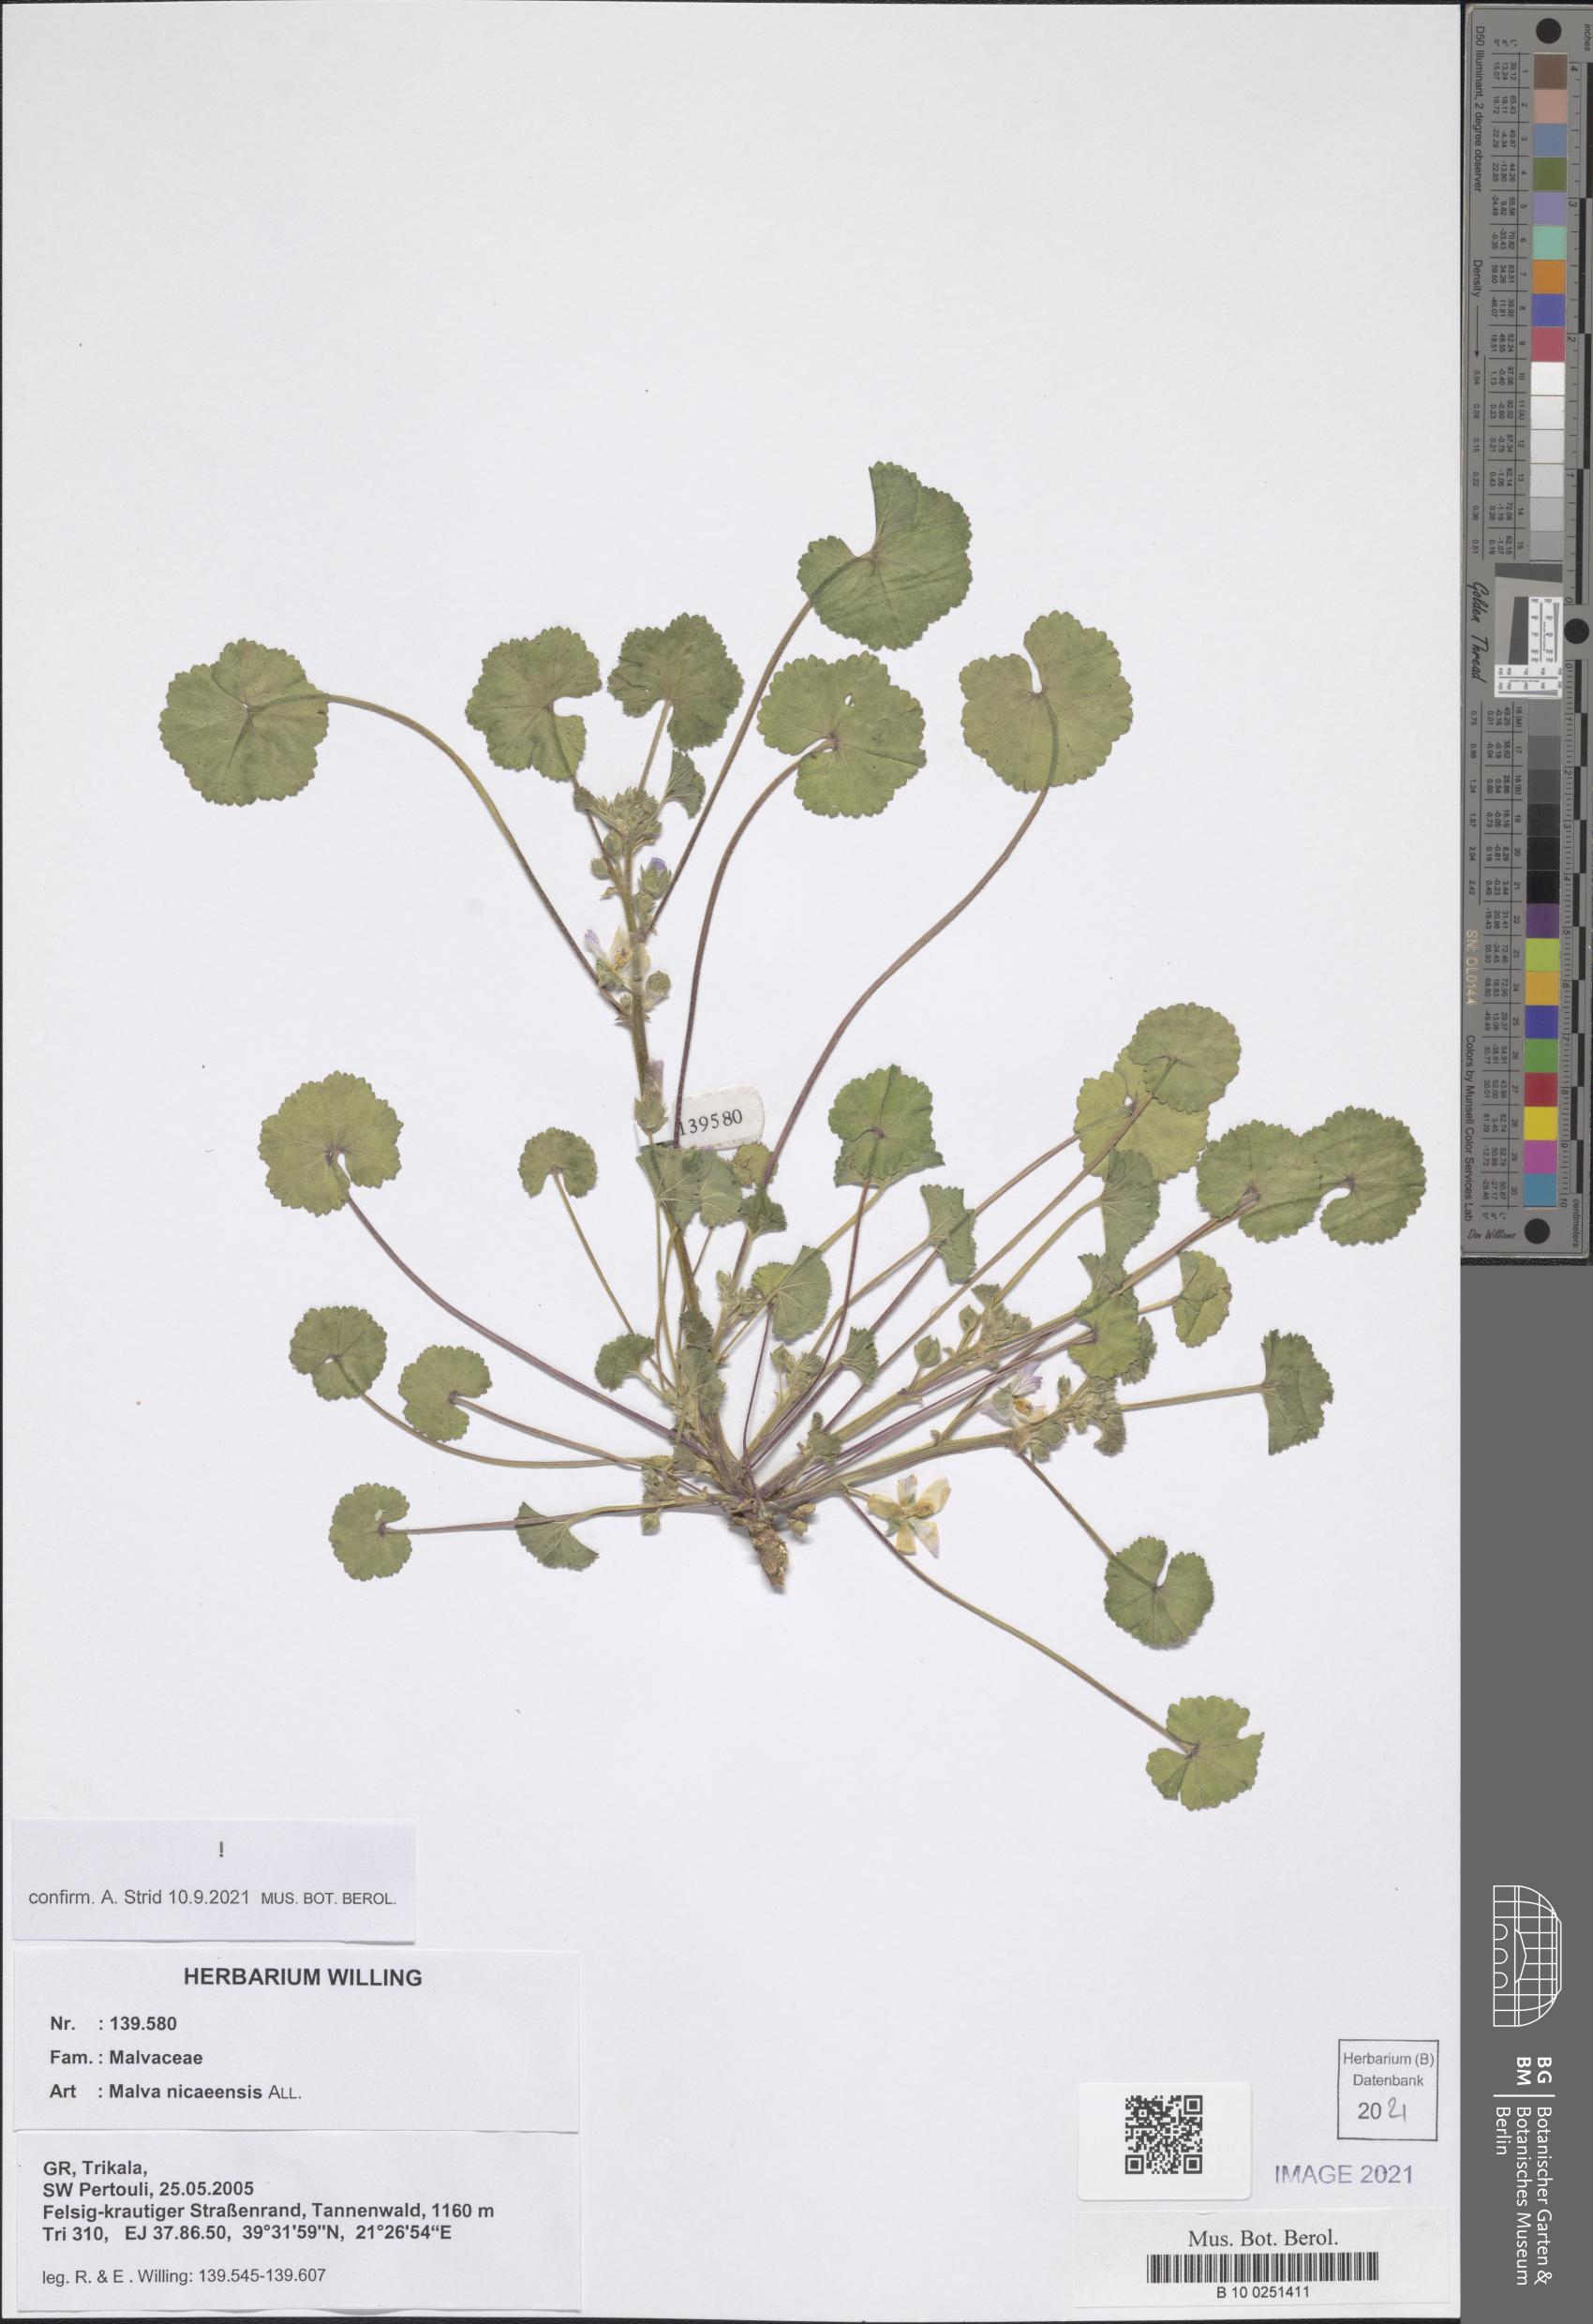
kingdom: Plantae
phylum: Tracheophyta
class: Magnoliopsida
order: Malvales
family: Malvaceae
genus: Malva
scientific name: Malva nicaeensis
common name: French mallow
